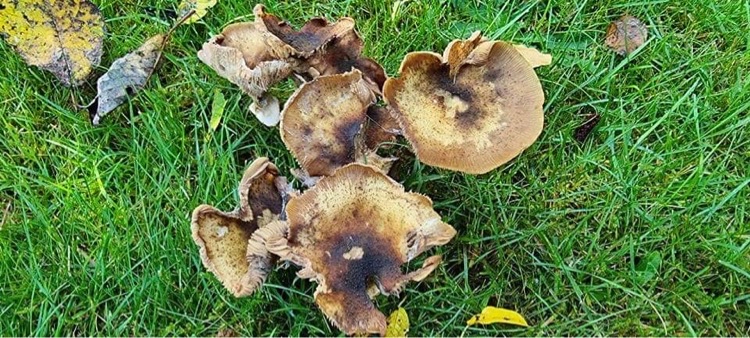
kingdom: Fungi
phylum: Basidiomycota
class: Agaricomycetes
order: Agaricales
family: Physalacriaceae
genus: Armillaria
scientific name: Armillaria mellea
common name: ægte honningsvamp
